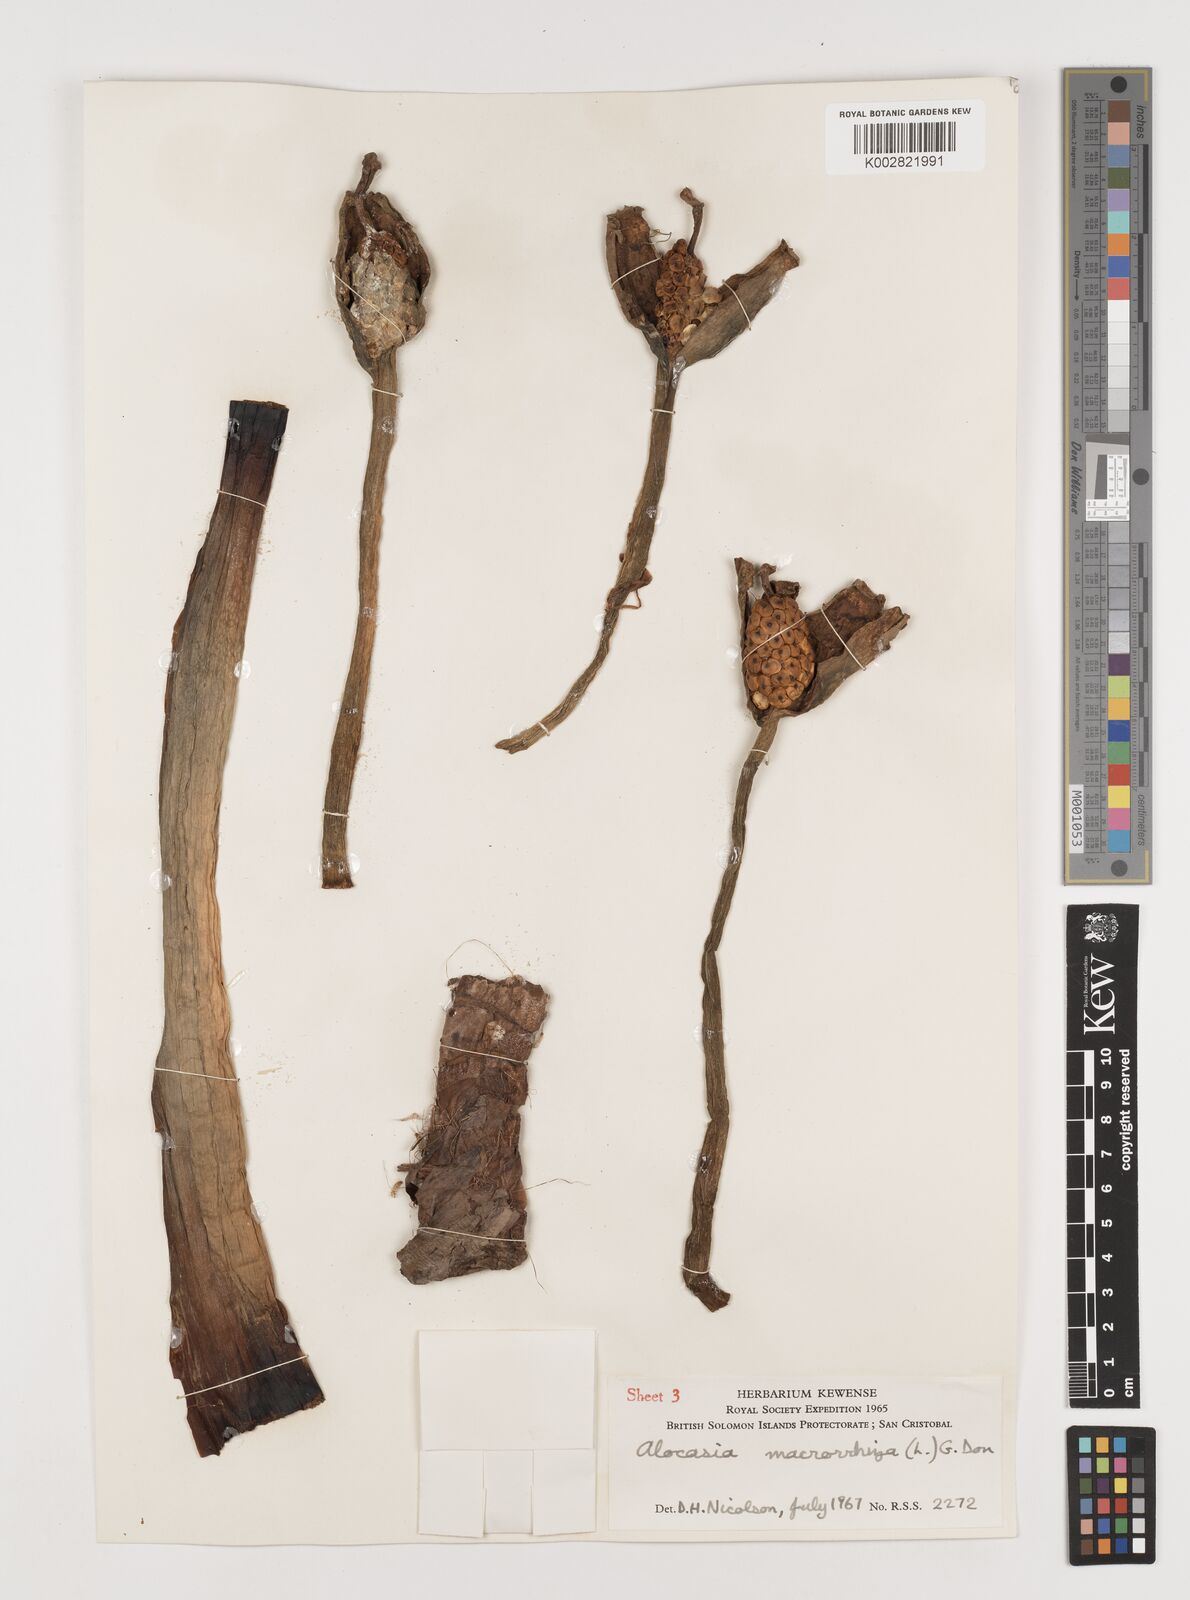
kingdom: Plantae
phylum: Tracheophyta
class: Liliopsida
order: Alismatales
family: Araceae
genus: Alocasia
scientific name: Alocasia macrorrhizos
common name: Giant taro
